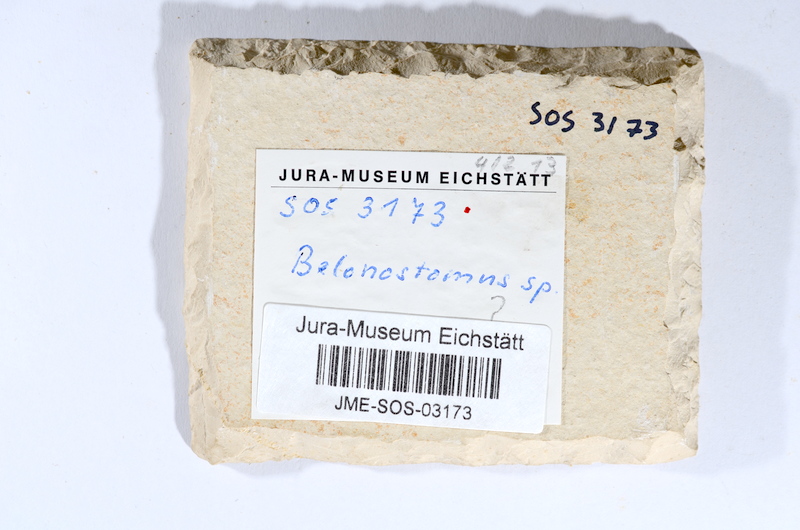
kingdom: Animalia
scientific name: Animalia
